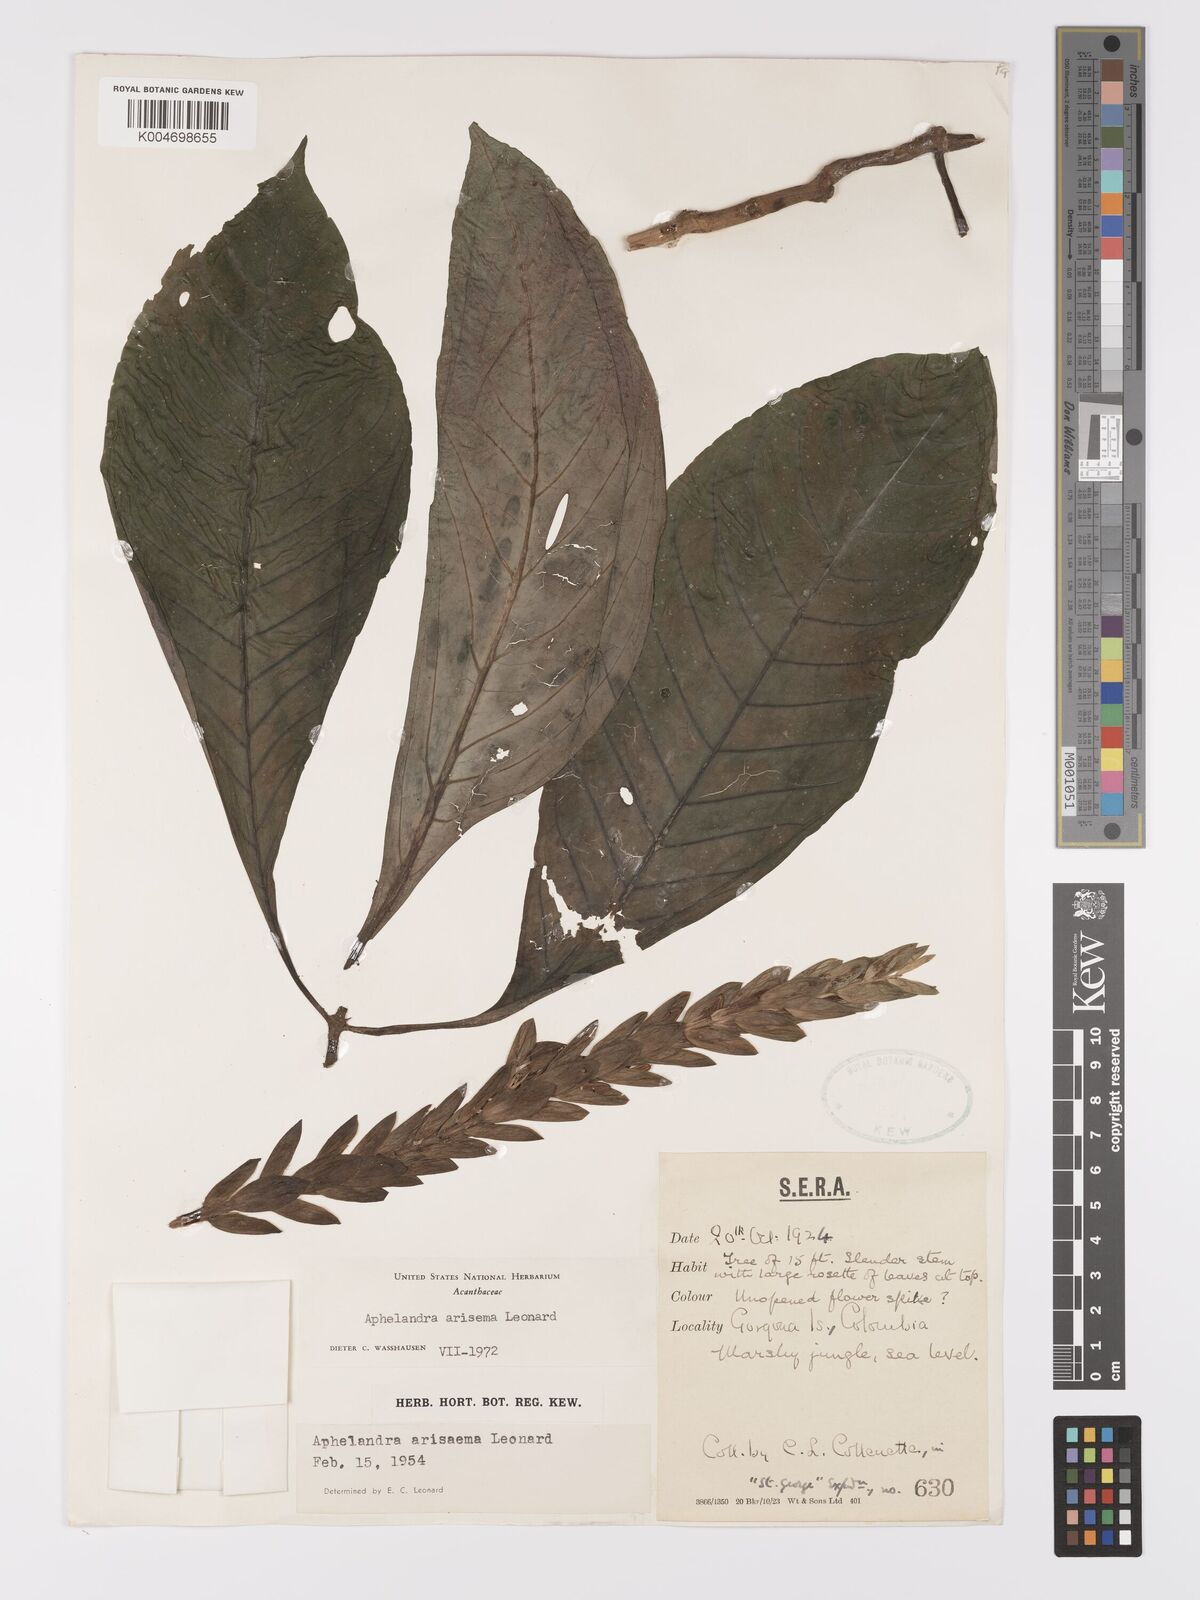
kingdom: Plantae
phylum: Tracheophyta
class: Magnoliopsida
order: Lamiales
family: Acanthaceae
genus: Aphelandra
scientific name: Aphelandra arisema
